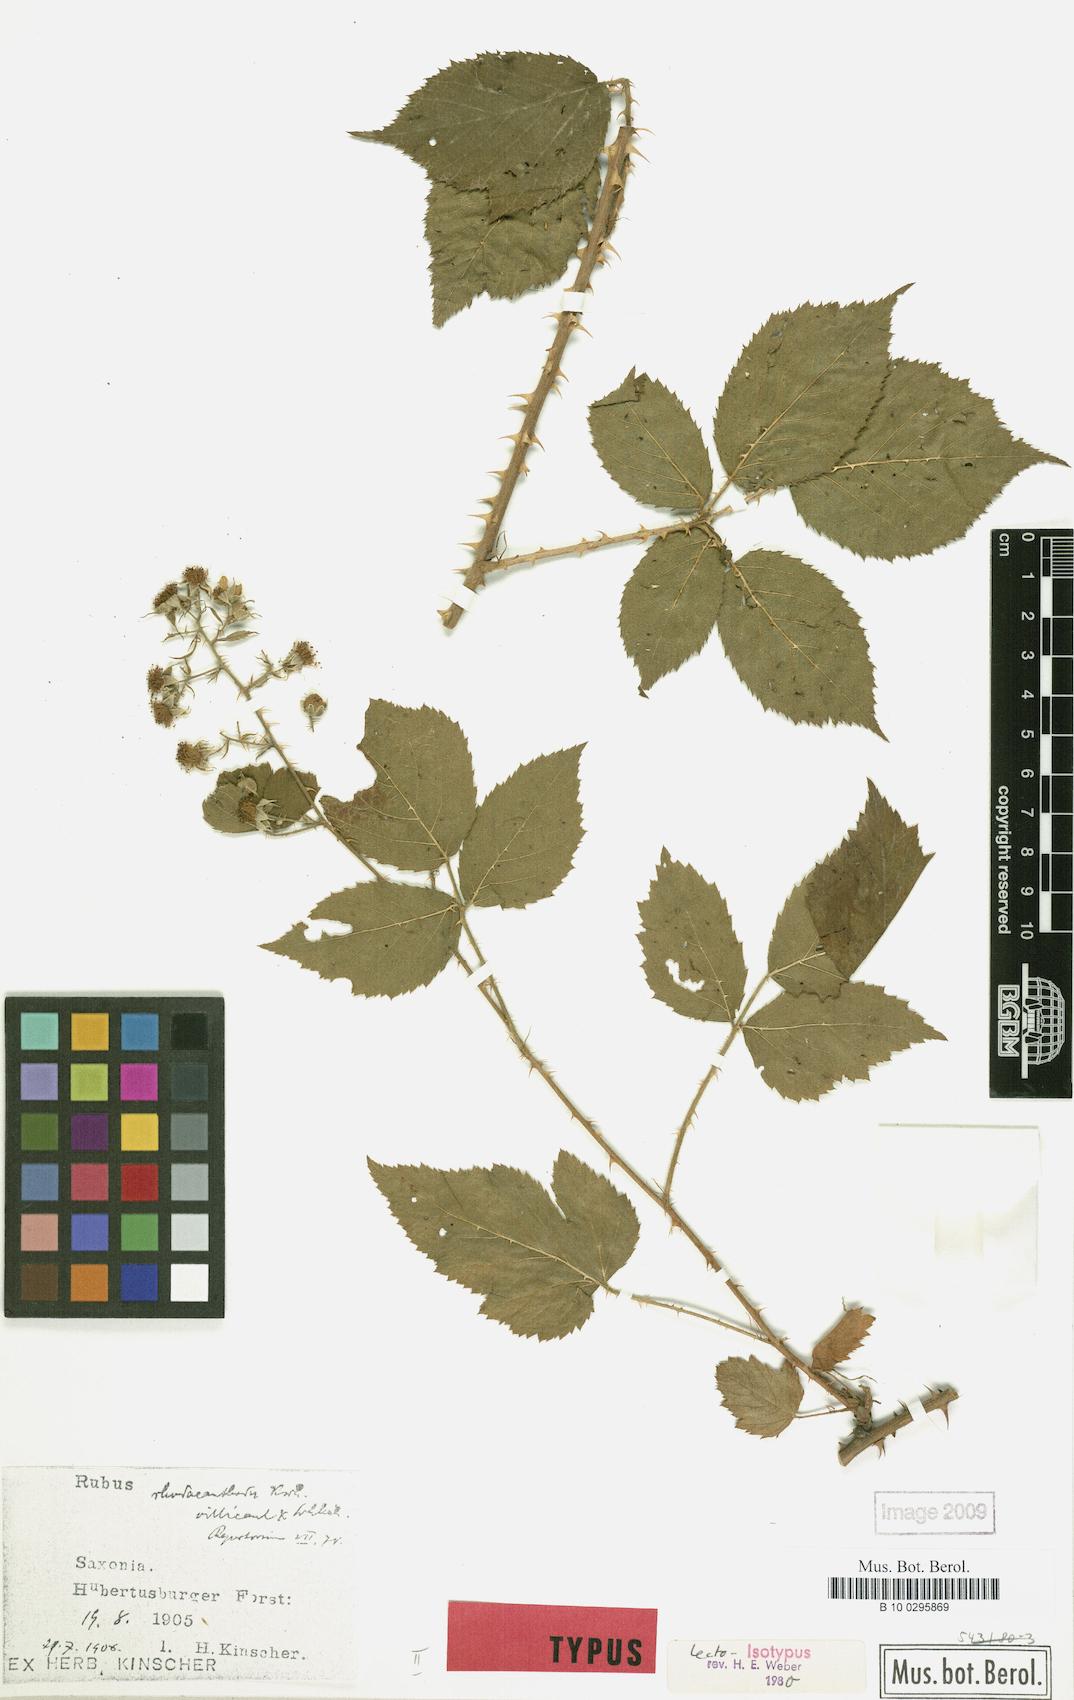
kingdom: Plantae
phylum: Tracheophyta
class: Magnoliopsida
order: Rosales
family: Rosaceae
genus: Rubus
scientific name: Rubus rhodacanthodes
